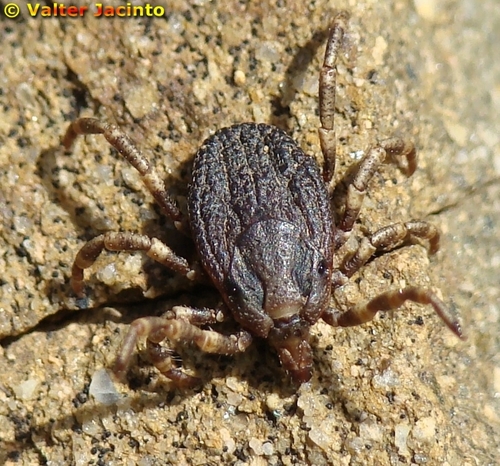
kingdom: Animalia
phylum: Arthropoda
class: Arachnida
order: Ixodida
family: Ixodidae
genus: Hyalomma
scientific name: Hyalomma lusitanicum
